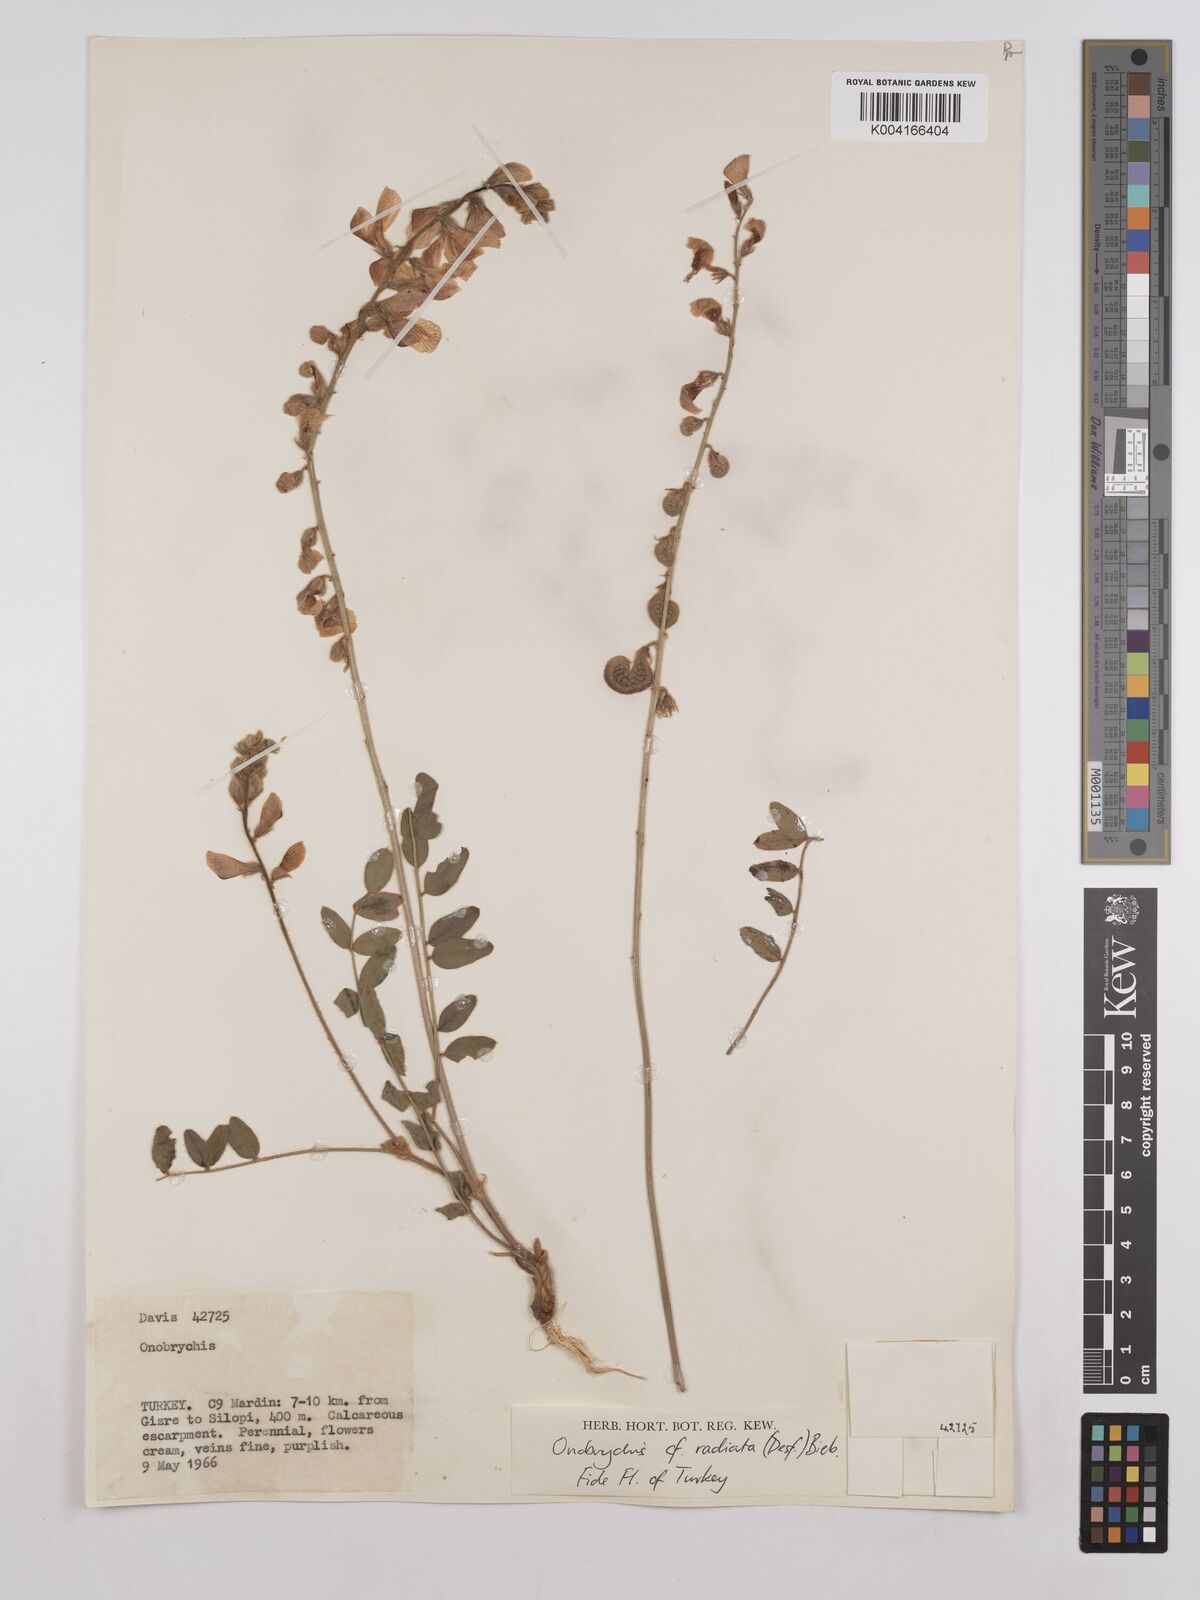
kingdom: Plantae
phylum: Tracheophyta
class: Magnoliopsida
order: Fabales
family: Fabaceae
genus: Onobrychis
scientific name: Onobrychis
